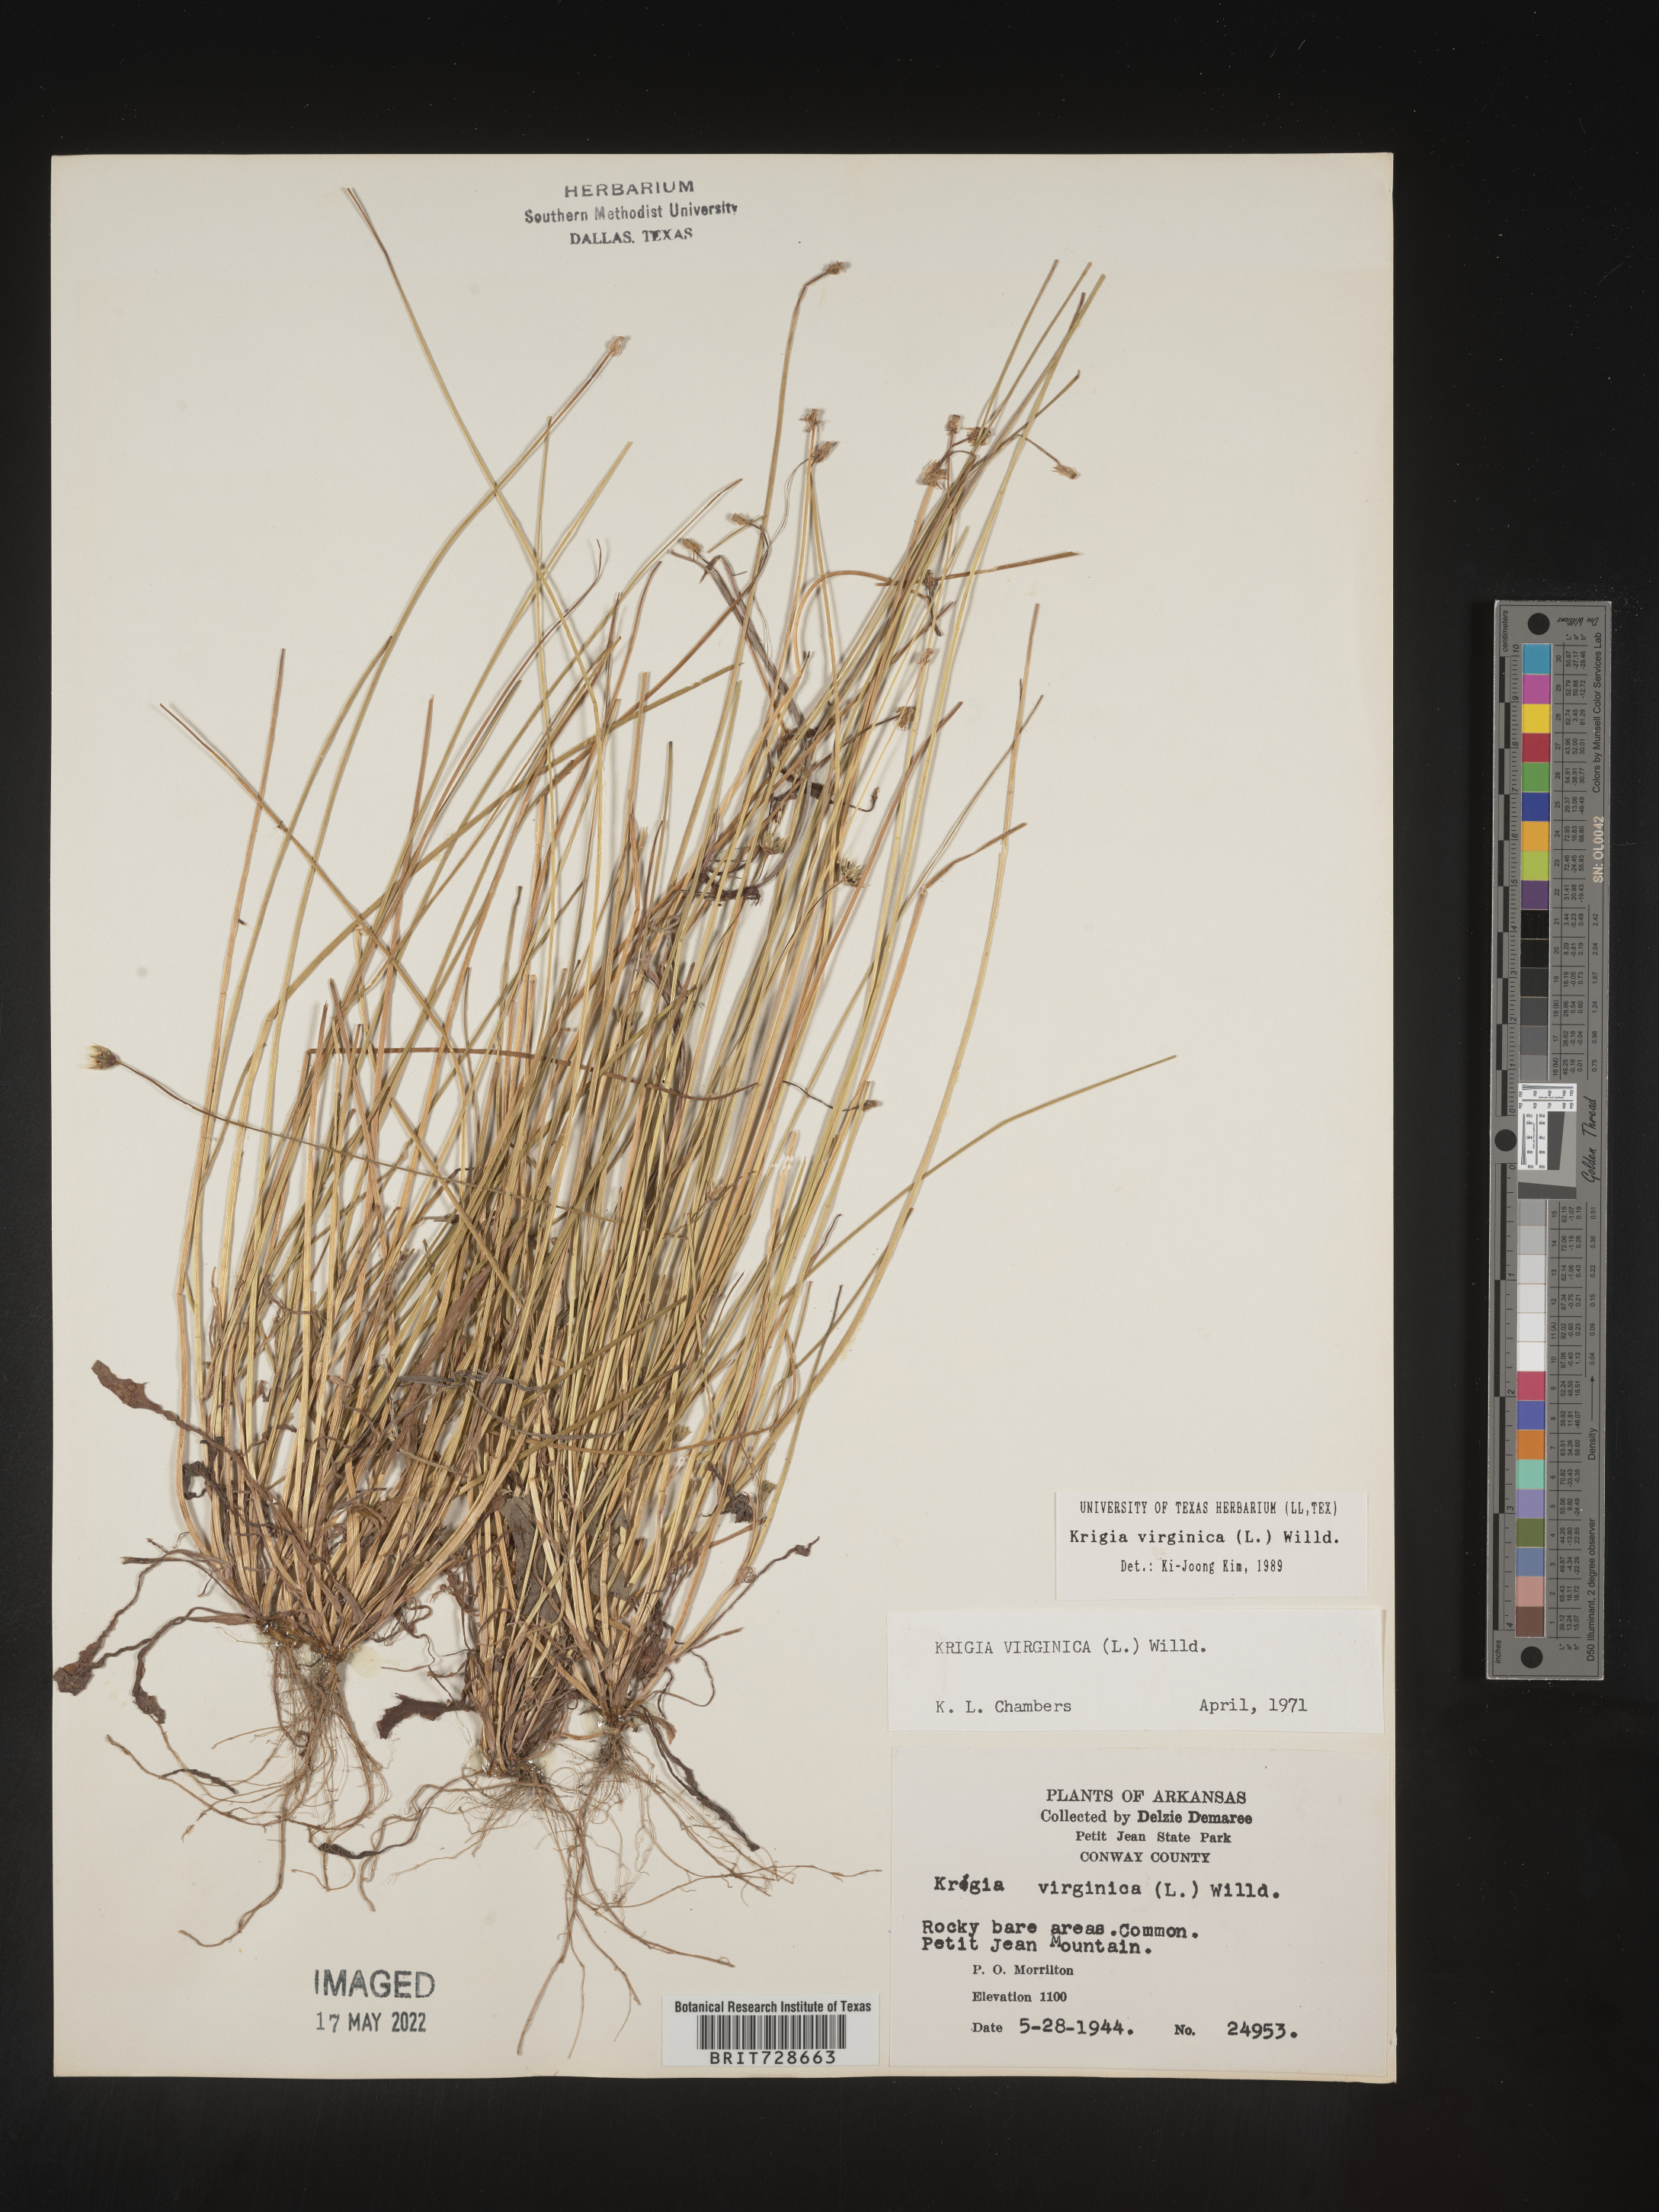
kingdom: Plantae
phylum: Tracheophyta
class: Magnoliopsida
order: Asterales
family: Asteraceae
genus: Krigia
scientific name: Krigia virginica
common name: Virginia dwarf-dandelion
